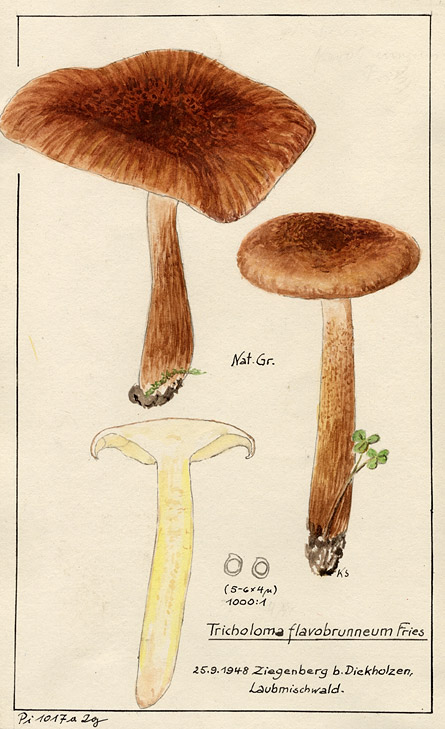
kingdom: Fungi
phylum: Basidiomycota
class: Agaricomycetes
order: Agaricales
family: Tricholomataceae
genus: Tricholoma
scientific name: Tricholoma fulvum
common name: Birch knight
